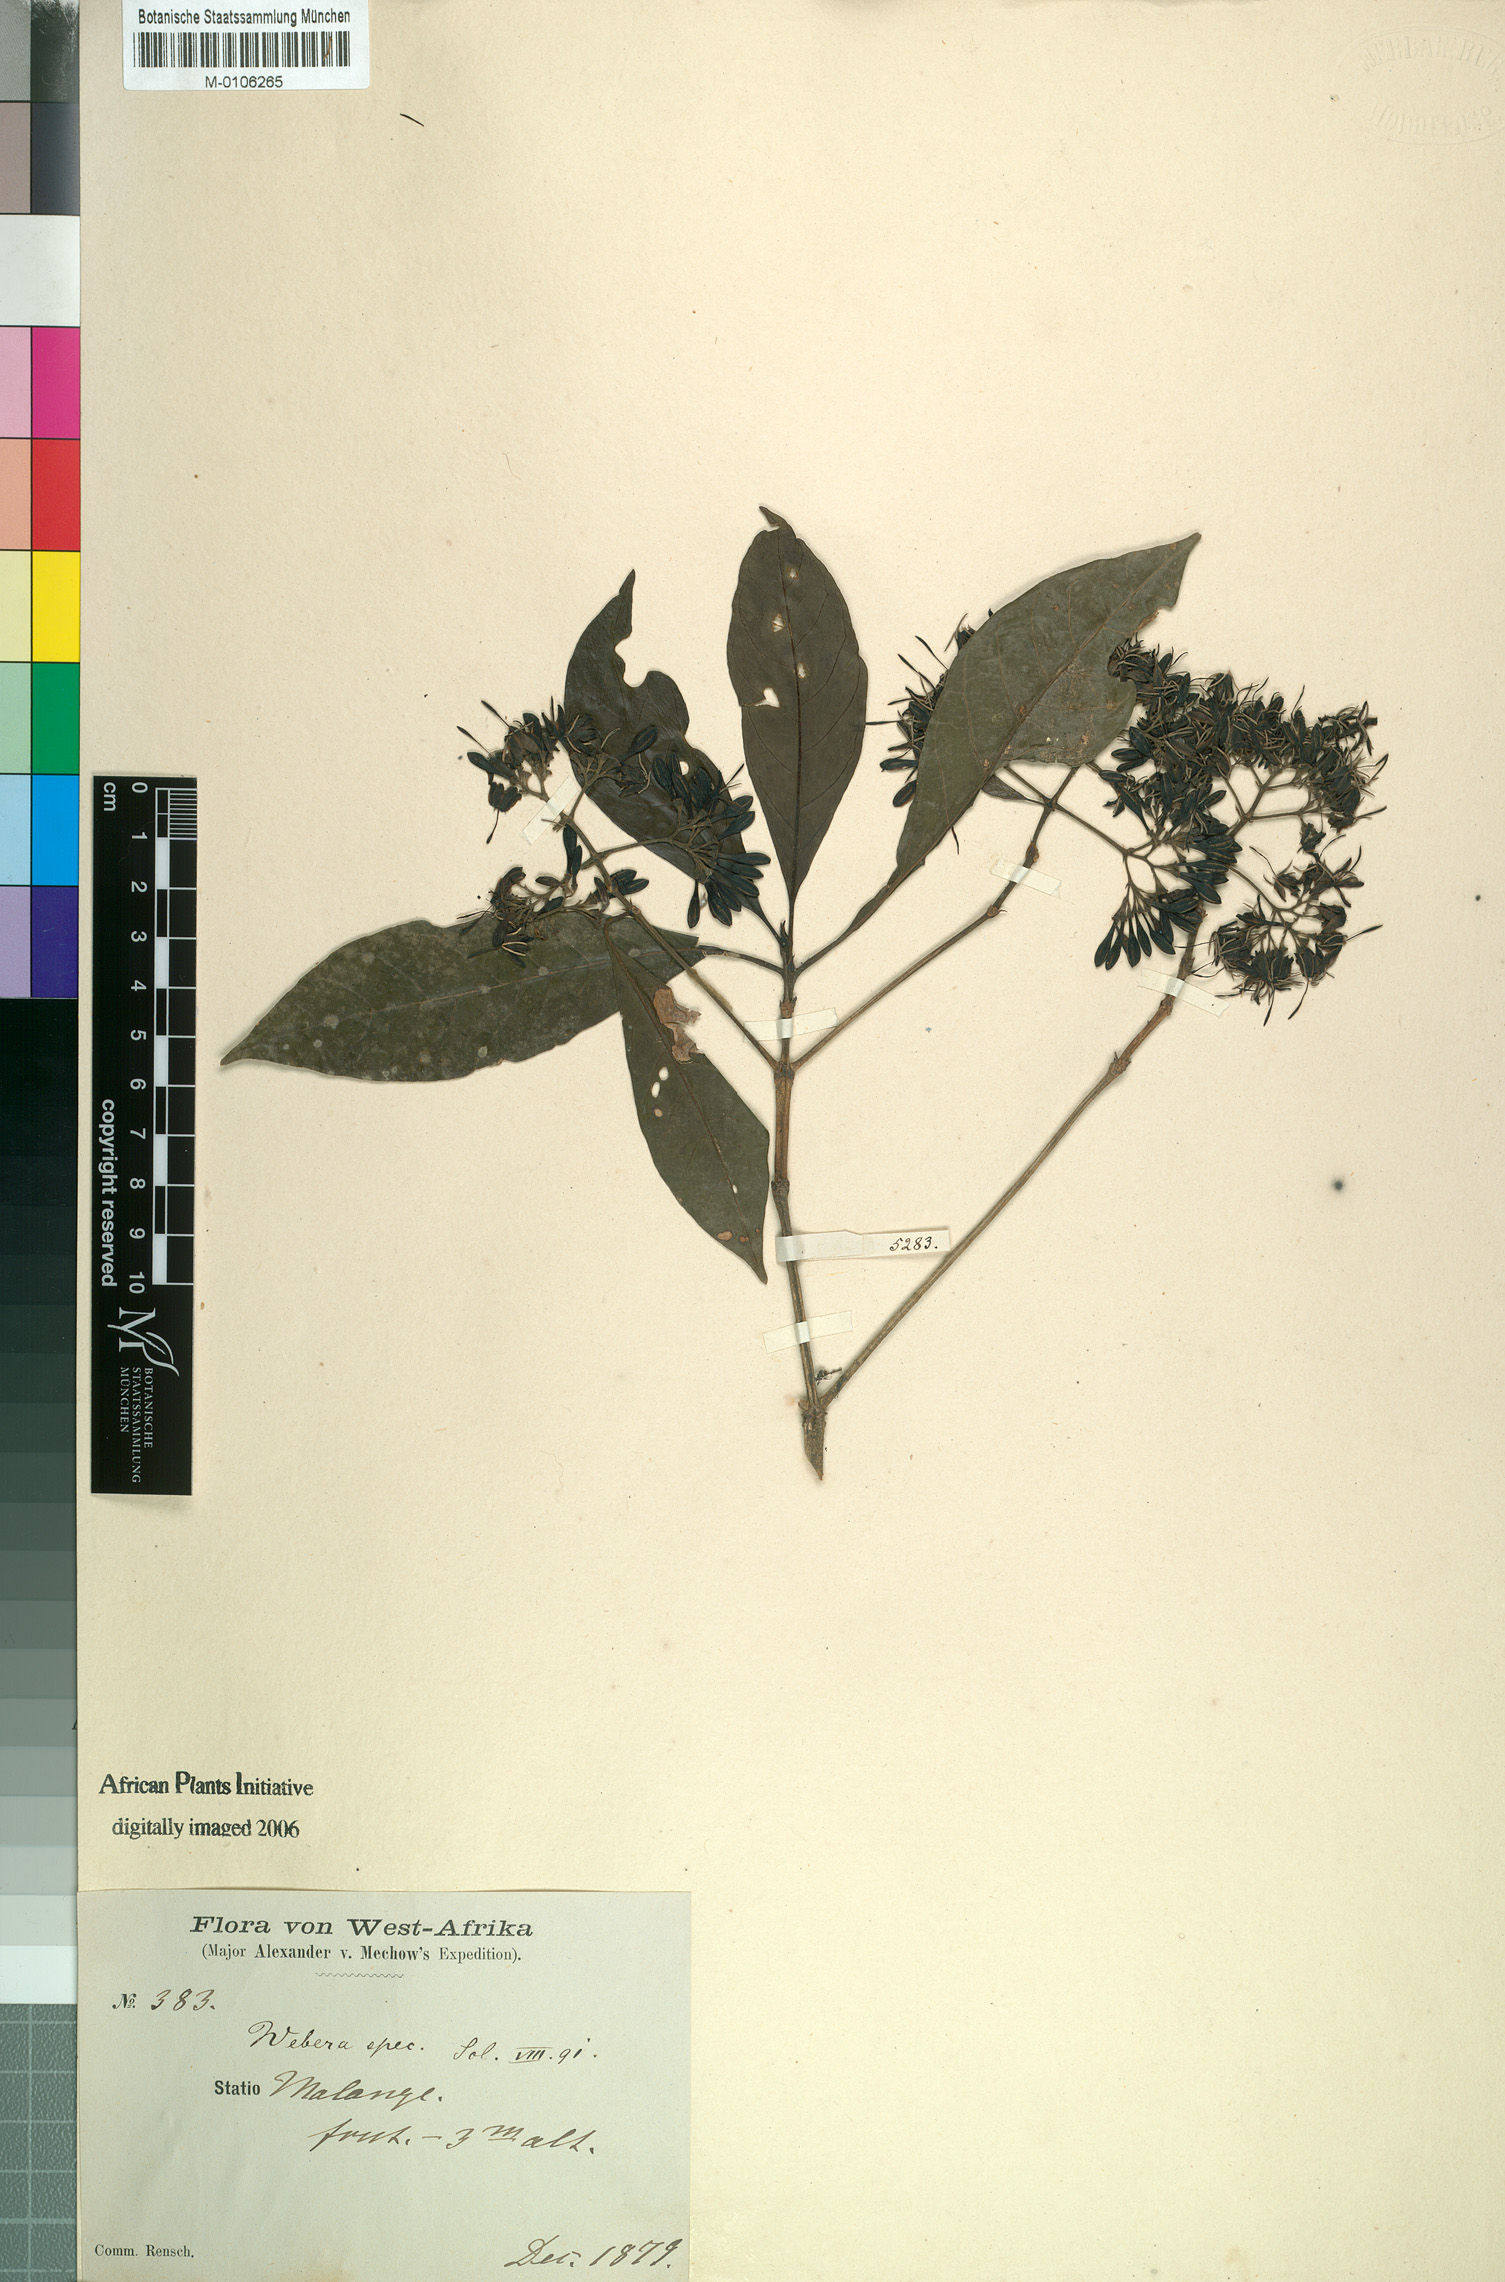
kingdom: Plantae
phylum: Tracheophyta
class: Magnoliopsida
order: Gentianales
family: Rubiaceae
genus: Chomelia
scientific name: Chomelia mechowiana
